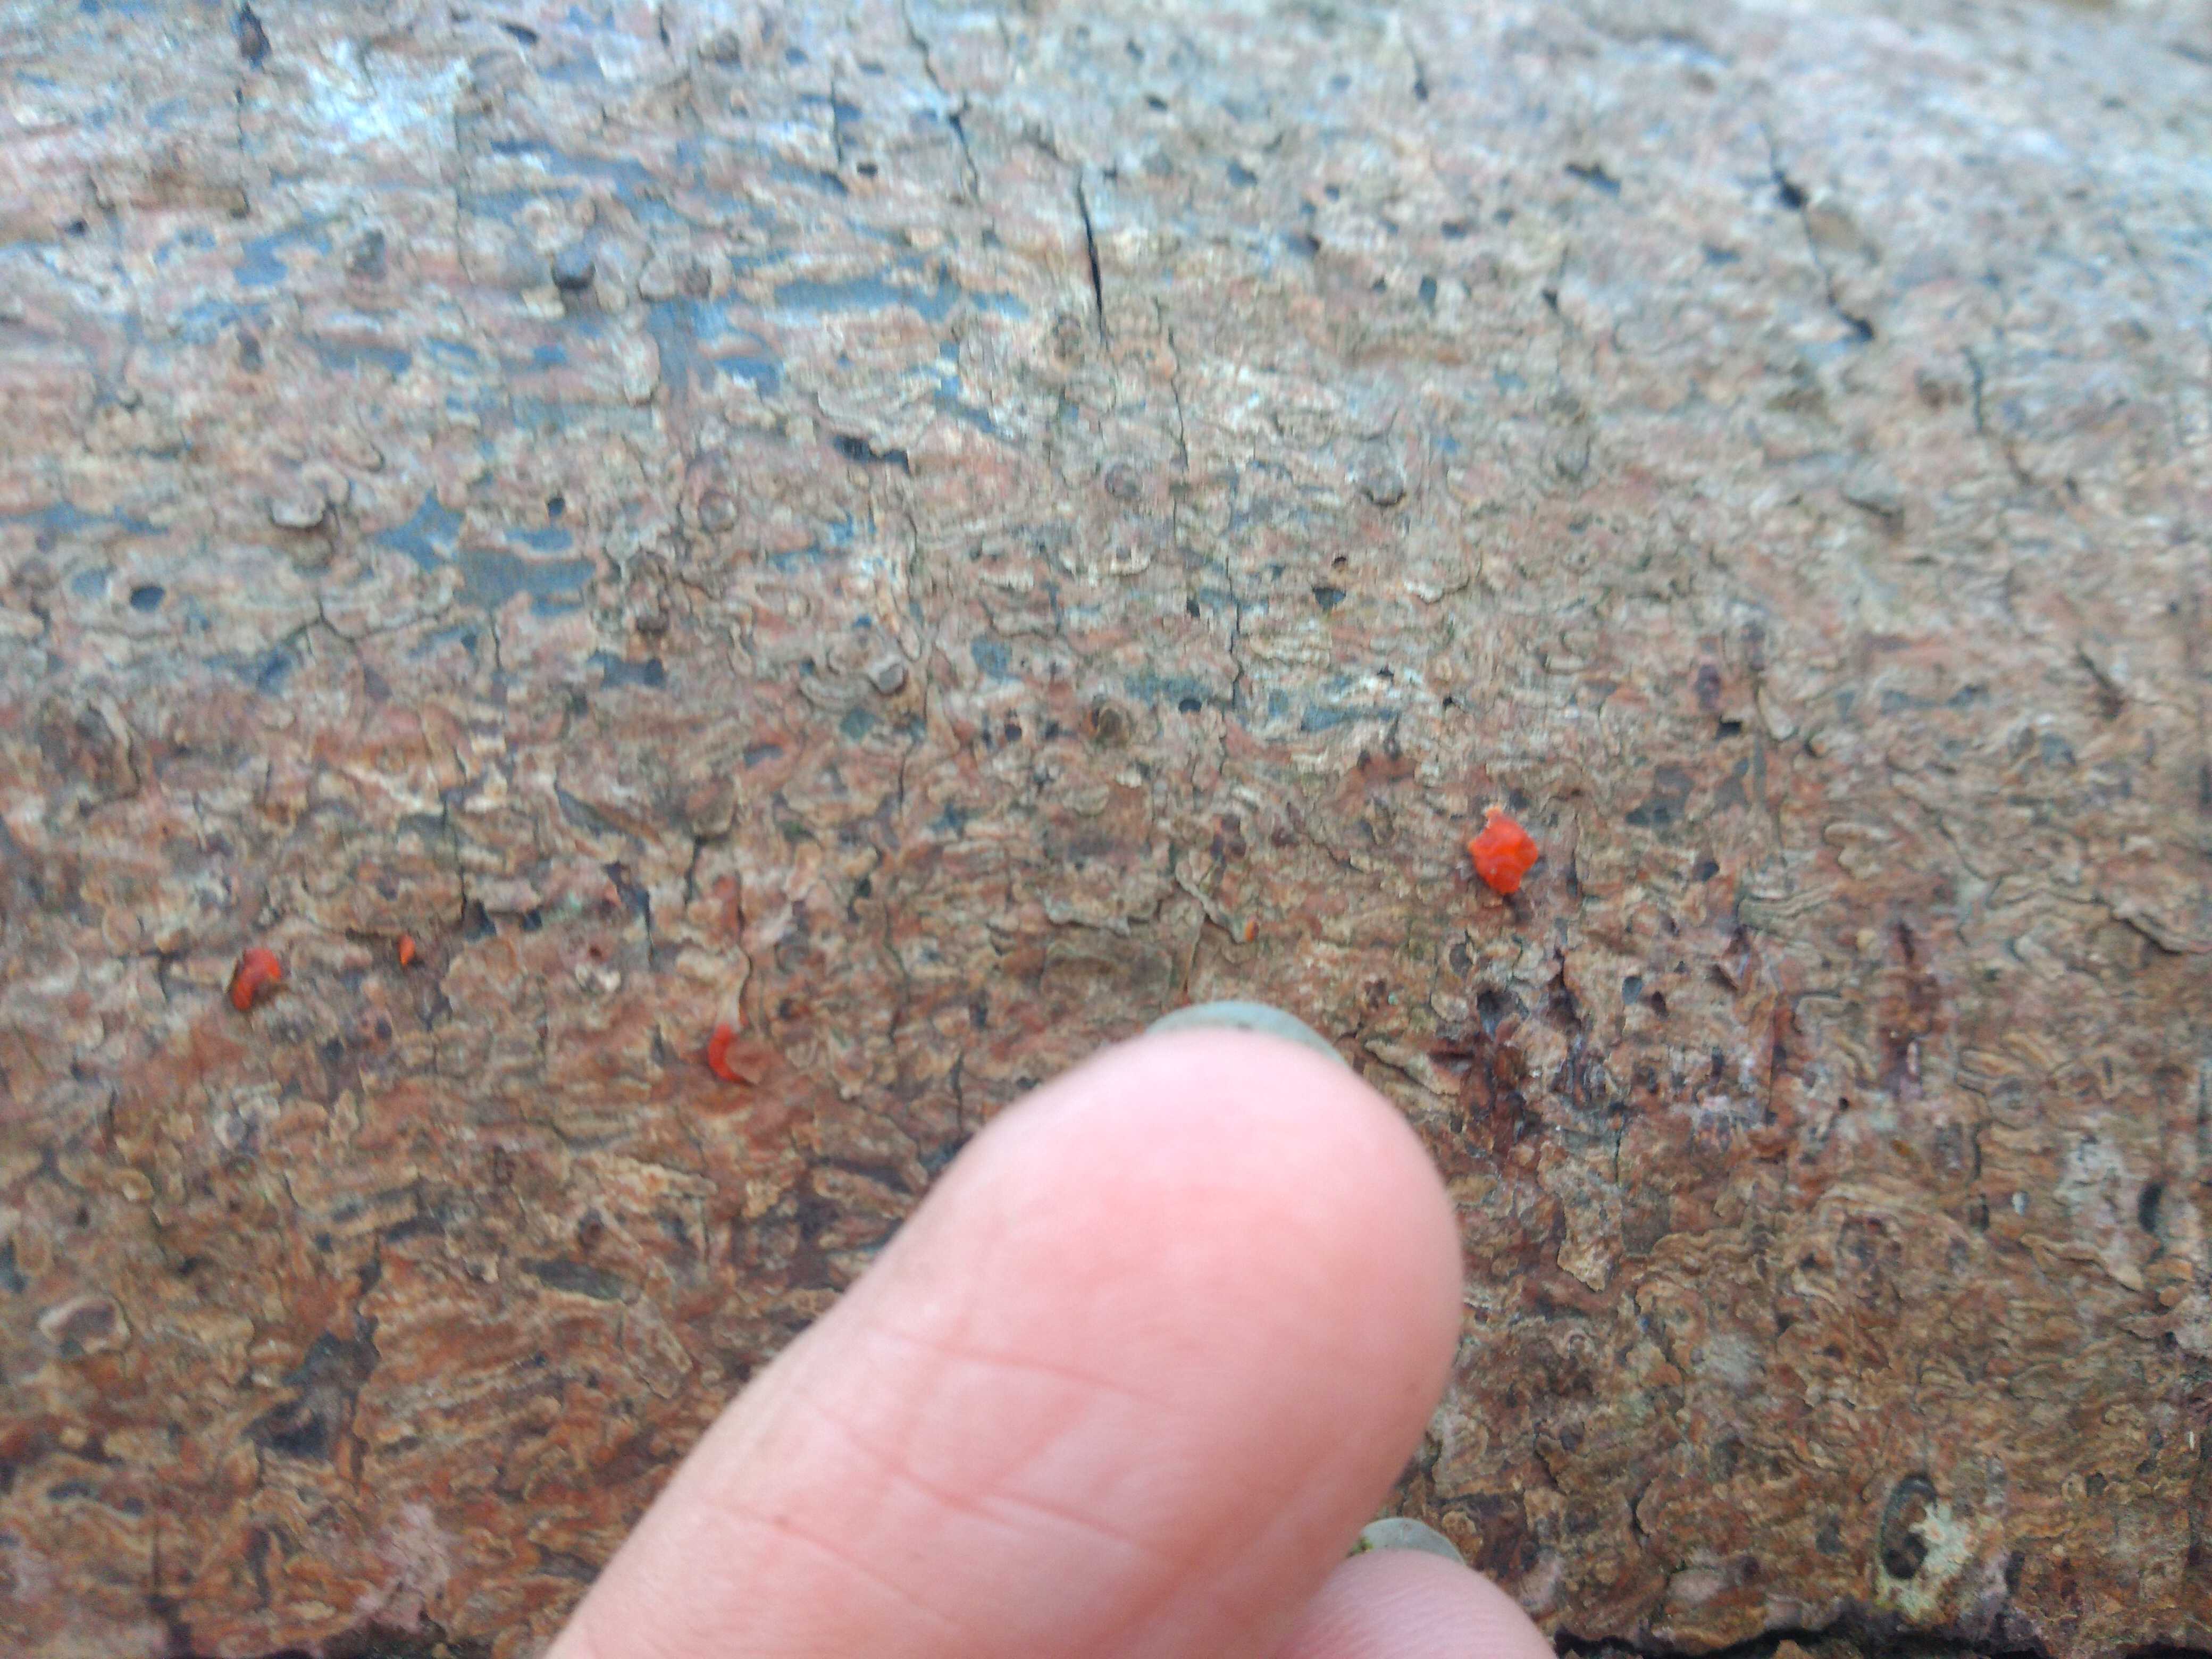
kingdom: Fungi
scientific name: Fungi
